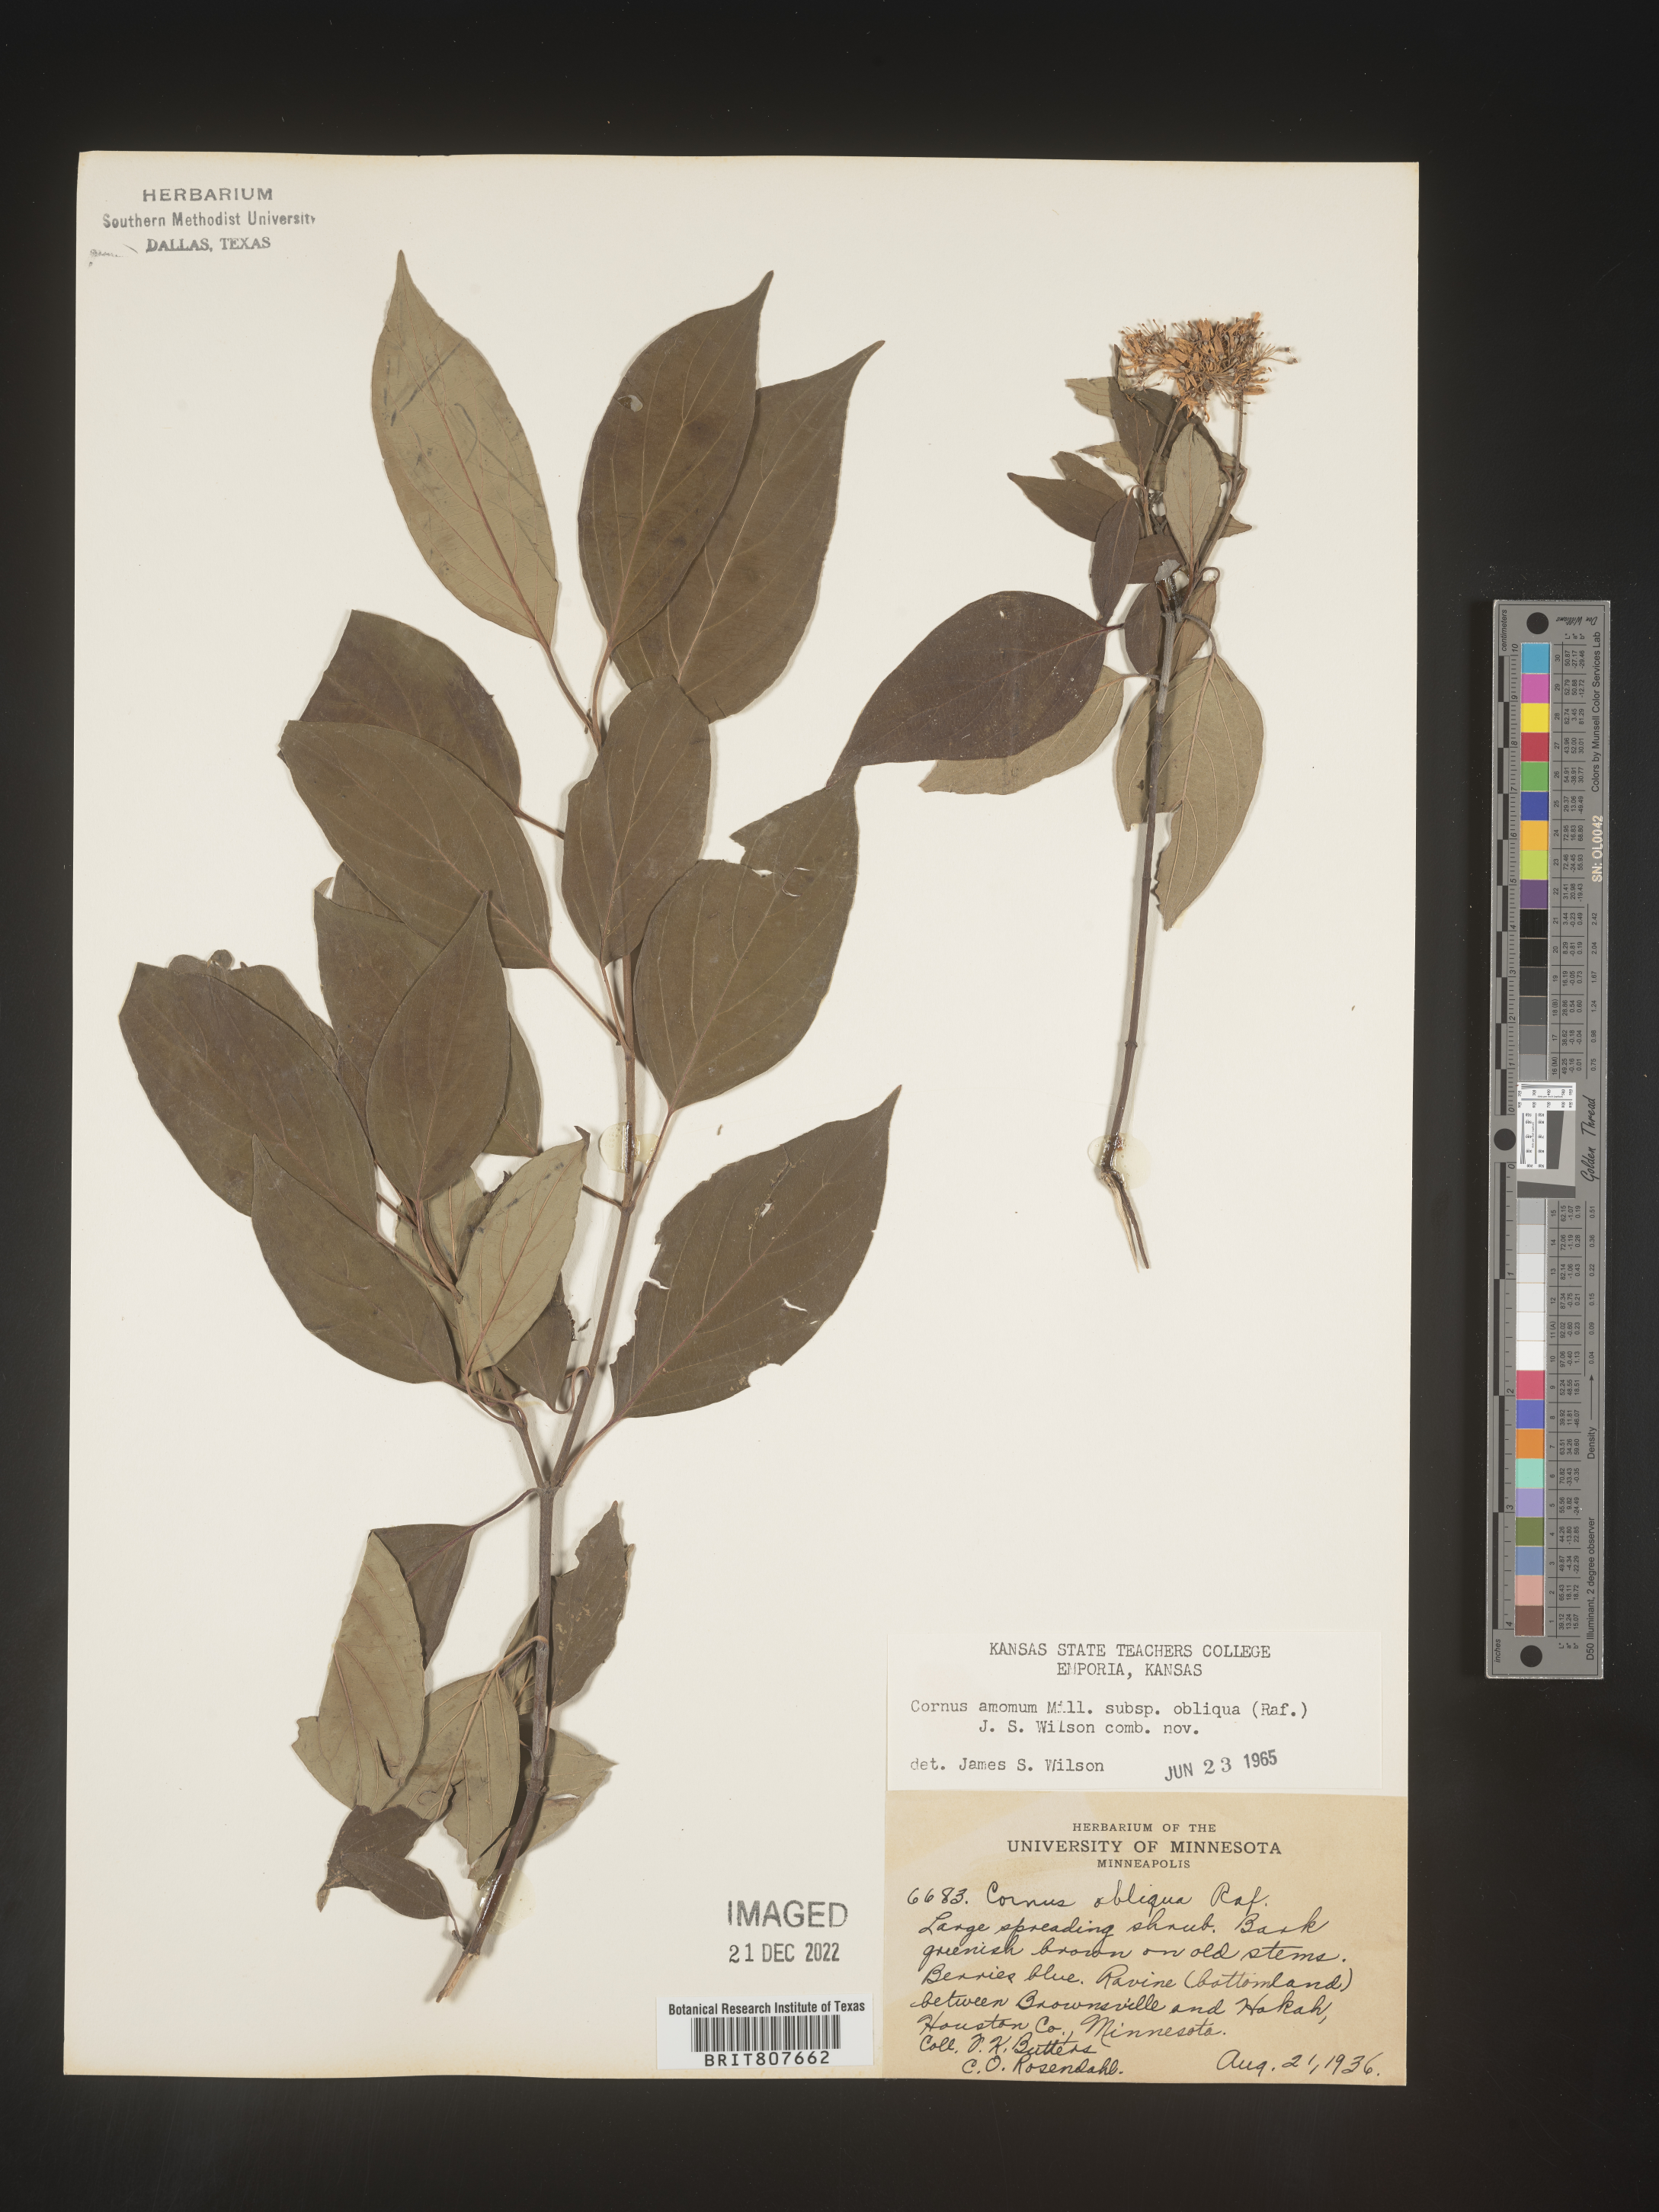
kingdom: Plantae
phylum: Tracheophyta
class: Magnoliopsida
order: Cornales
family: Cornaceae
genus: Cornus
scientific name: Cornus obliqua
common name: Pale dogwood
